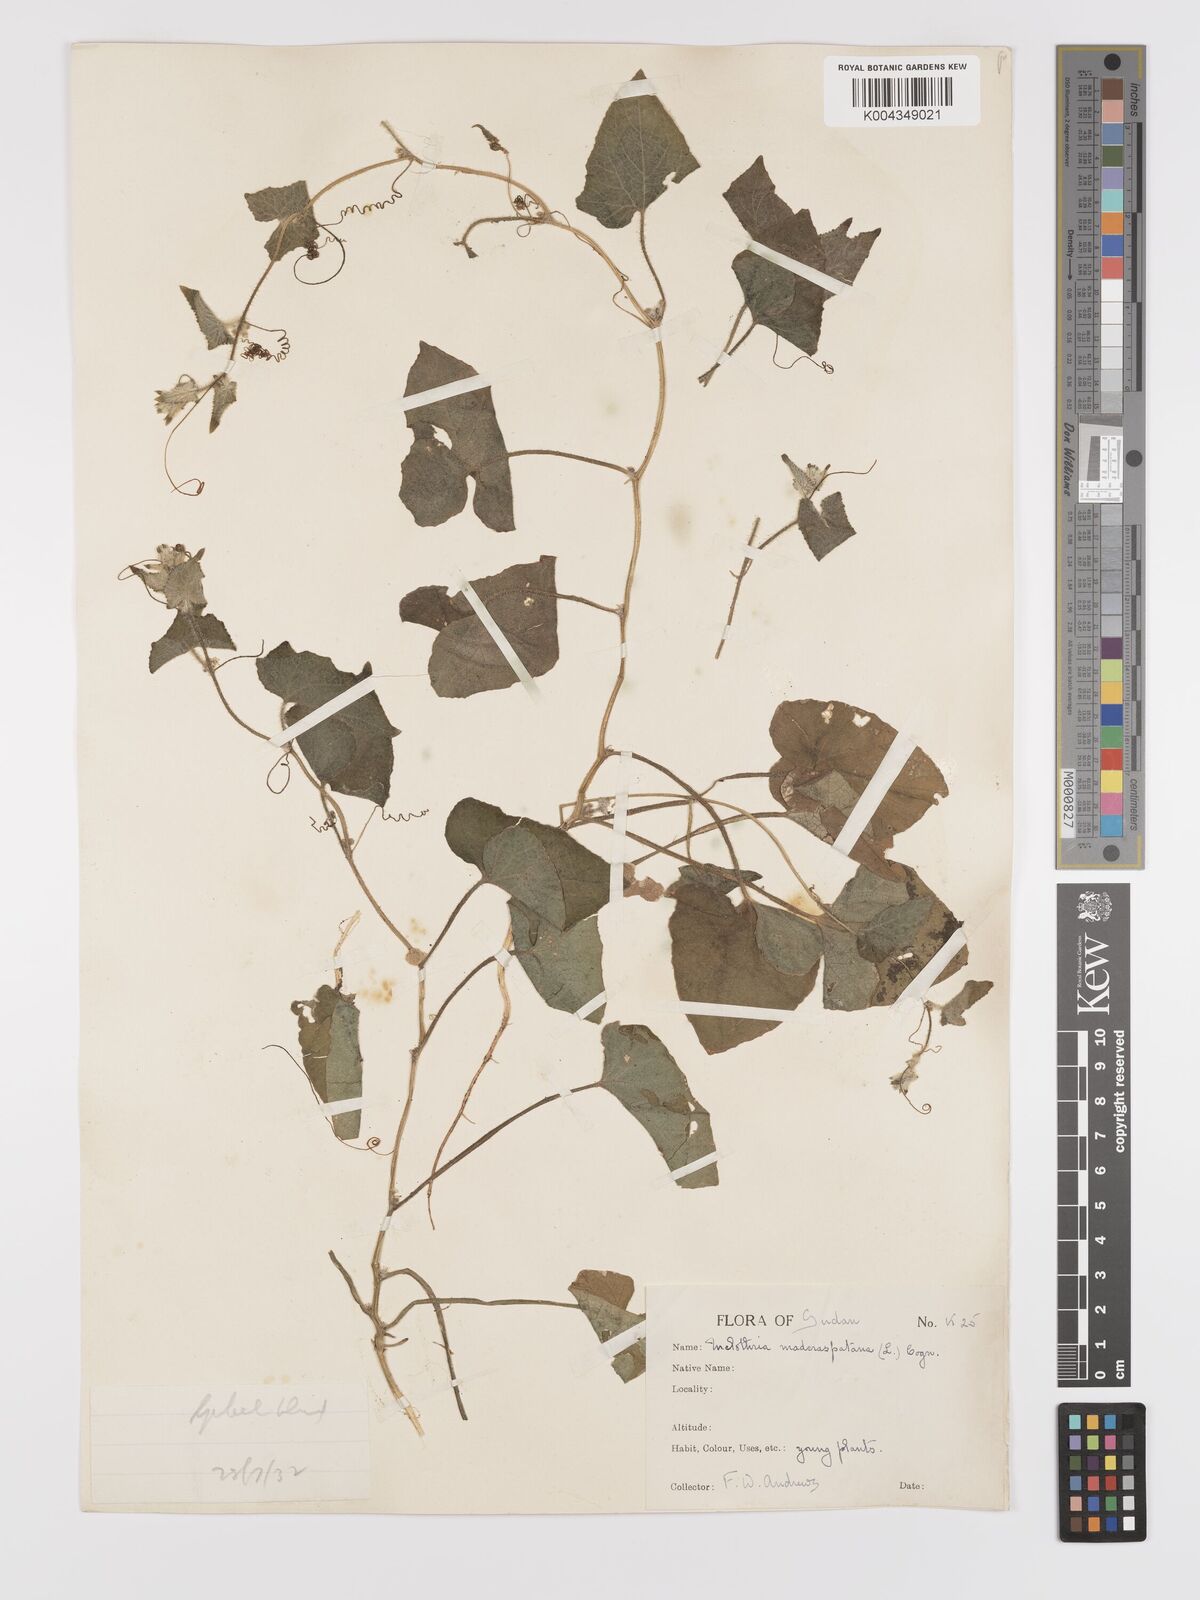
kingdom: Plantae
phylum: Tracheophyta
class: Magnoliopsida
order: Cucurbitales
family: Cucurbitaceae
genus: Cucumis
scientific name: Cucumis maderaspatanus
